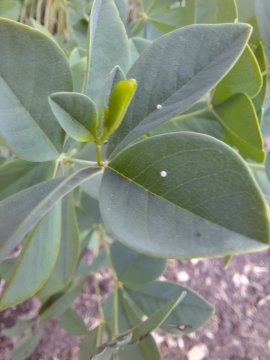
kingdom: Animalia
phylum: Arthropoda
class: Insecta
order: Lepidoptera
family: Hesperiidae
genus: Gesta
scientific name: Gesta
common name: Wild Indigo Duskywing
